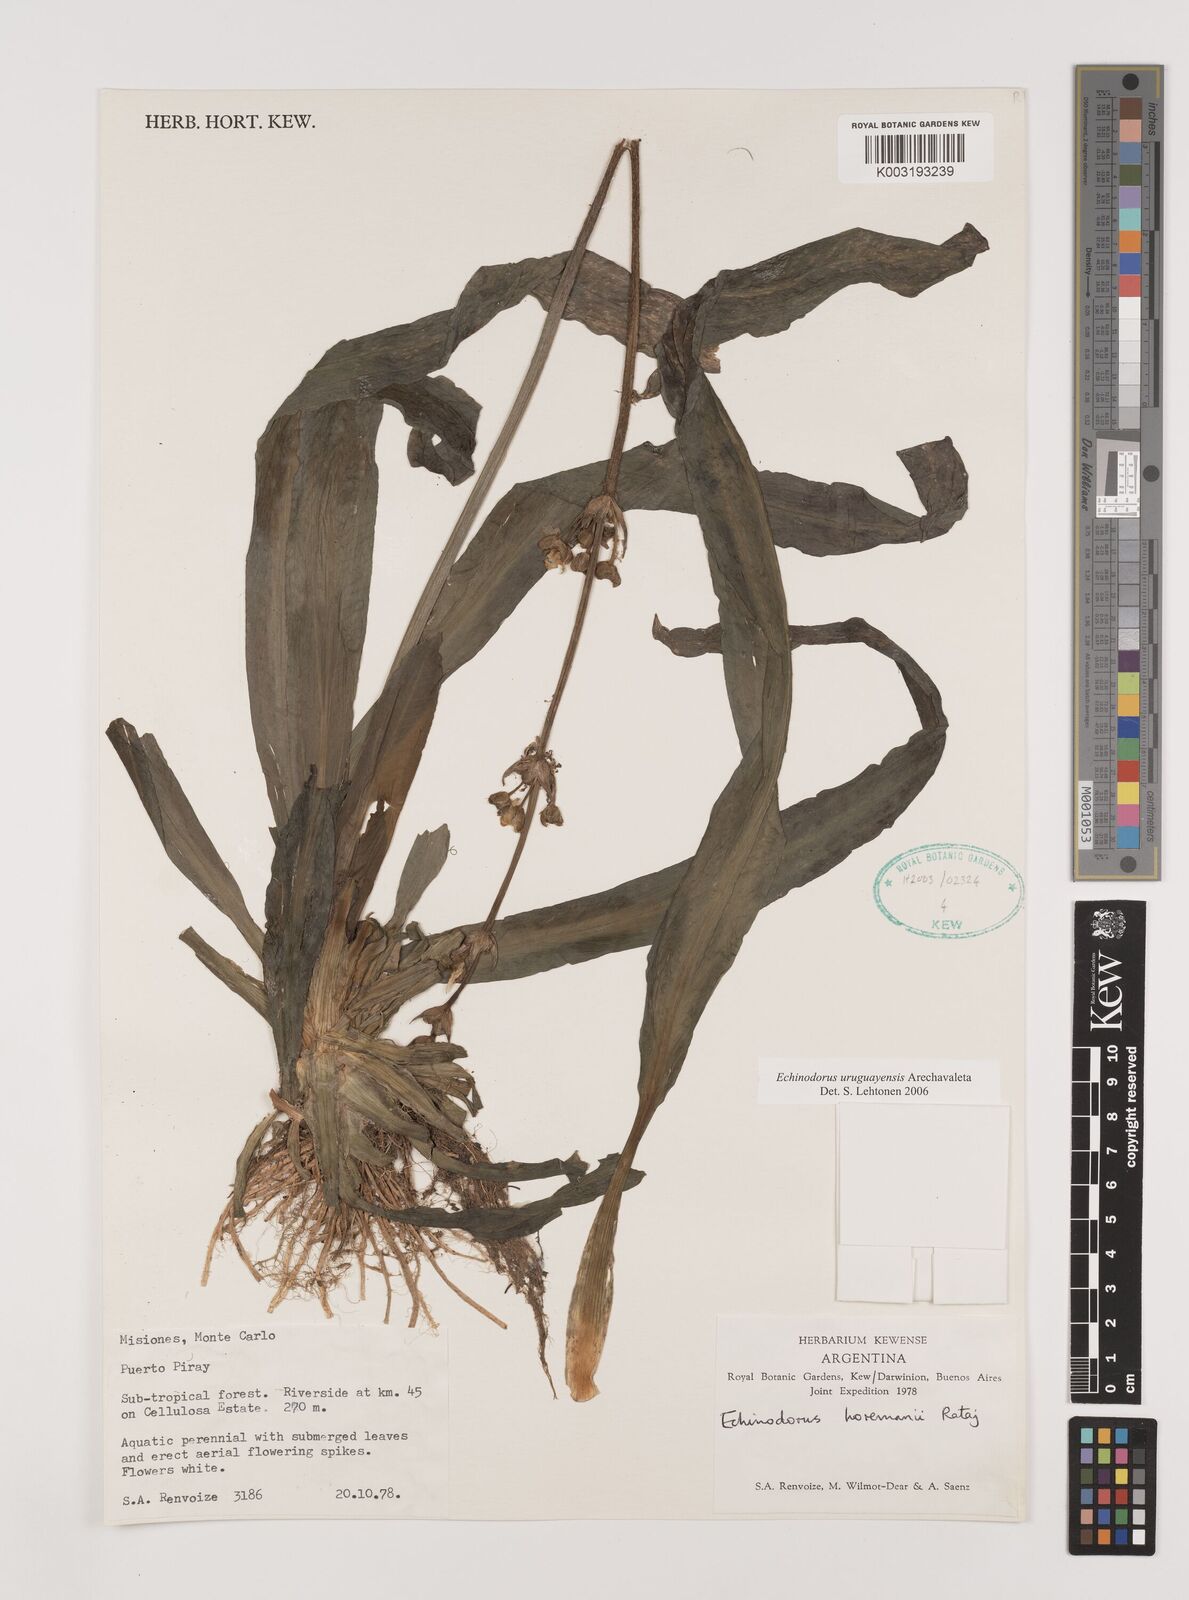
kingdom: Plantae
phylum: Tracheophyta
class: Liliopsida
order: Alismatales
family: Alismataceae
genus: Aquarius
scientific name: Aquarius uruguayensis
